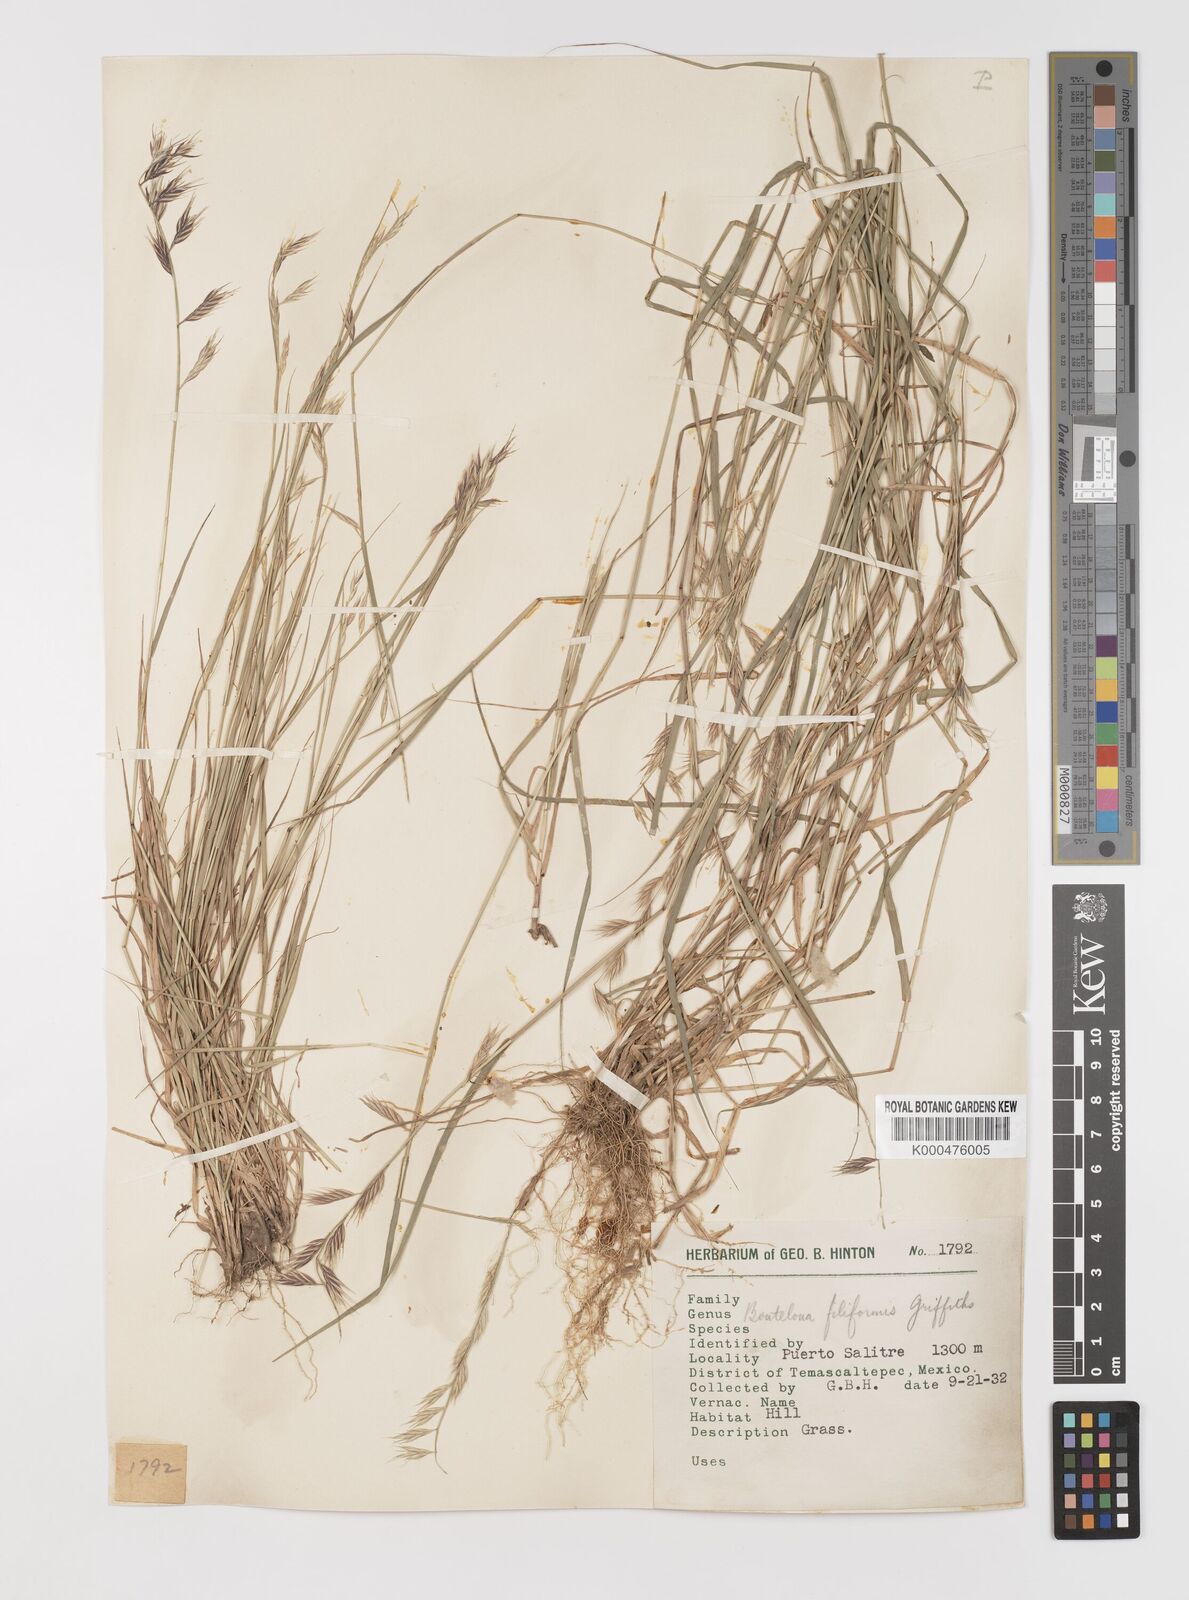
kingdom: Plantae
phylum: Tracheophyta
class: Liliopsida
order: Poales
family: Poaceae
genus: Bouteloua
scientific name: Bouteloua repens
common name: Slender grama
